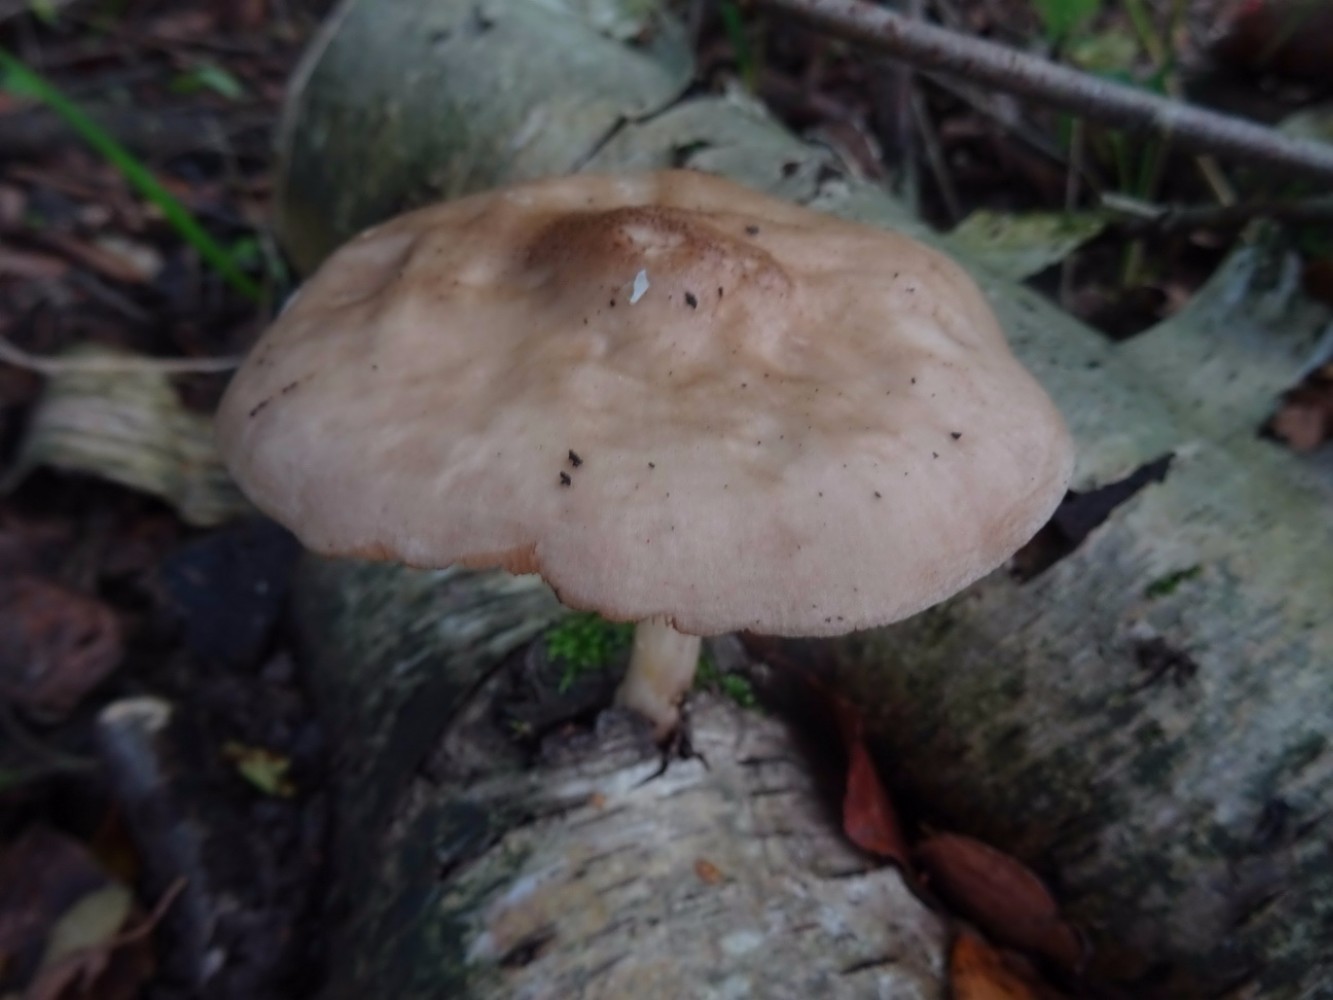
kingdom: Fungi
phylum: Basidiomycota
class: Agaricomycetes
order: Agaricales
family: Pluteaceae
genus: Pluteus
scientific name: Pluteus cervinus
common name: sodfarvet skærmhat
